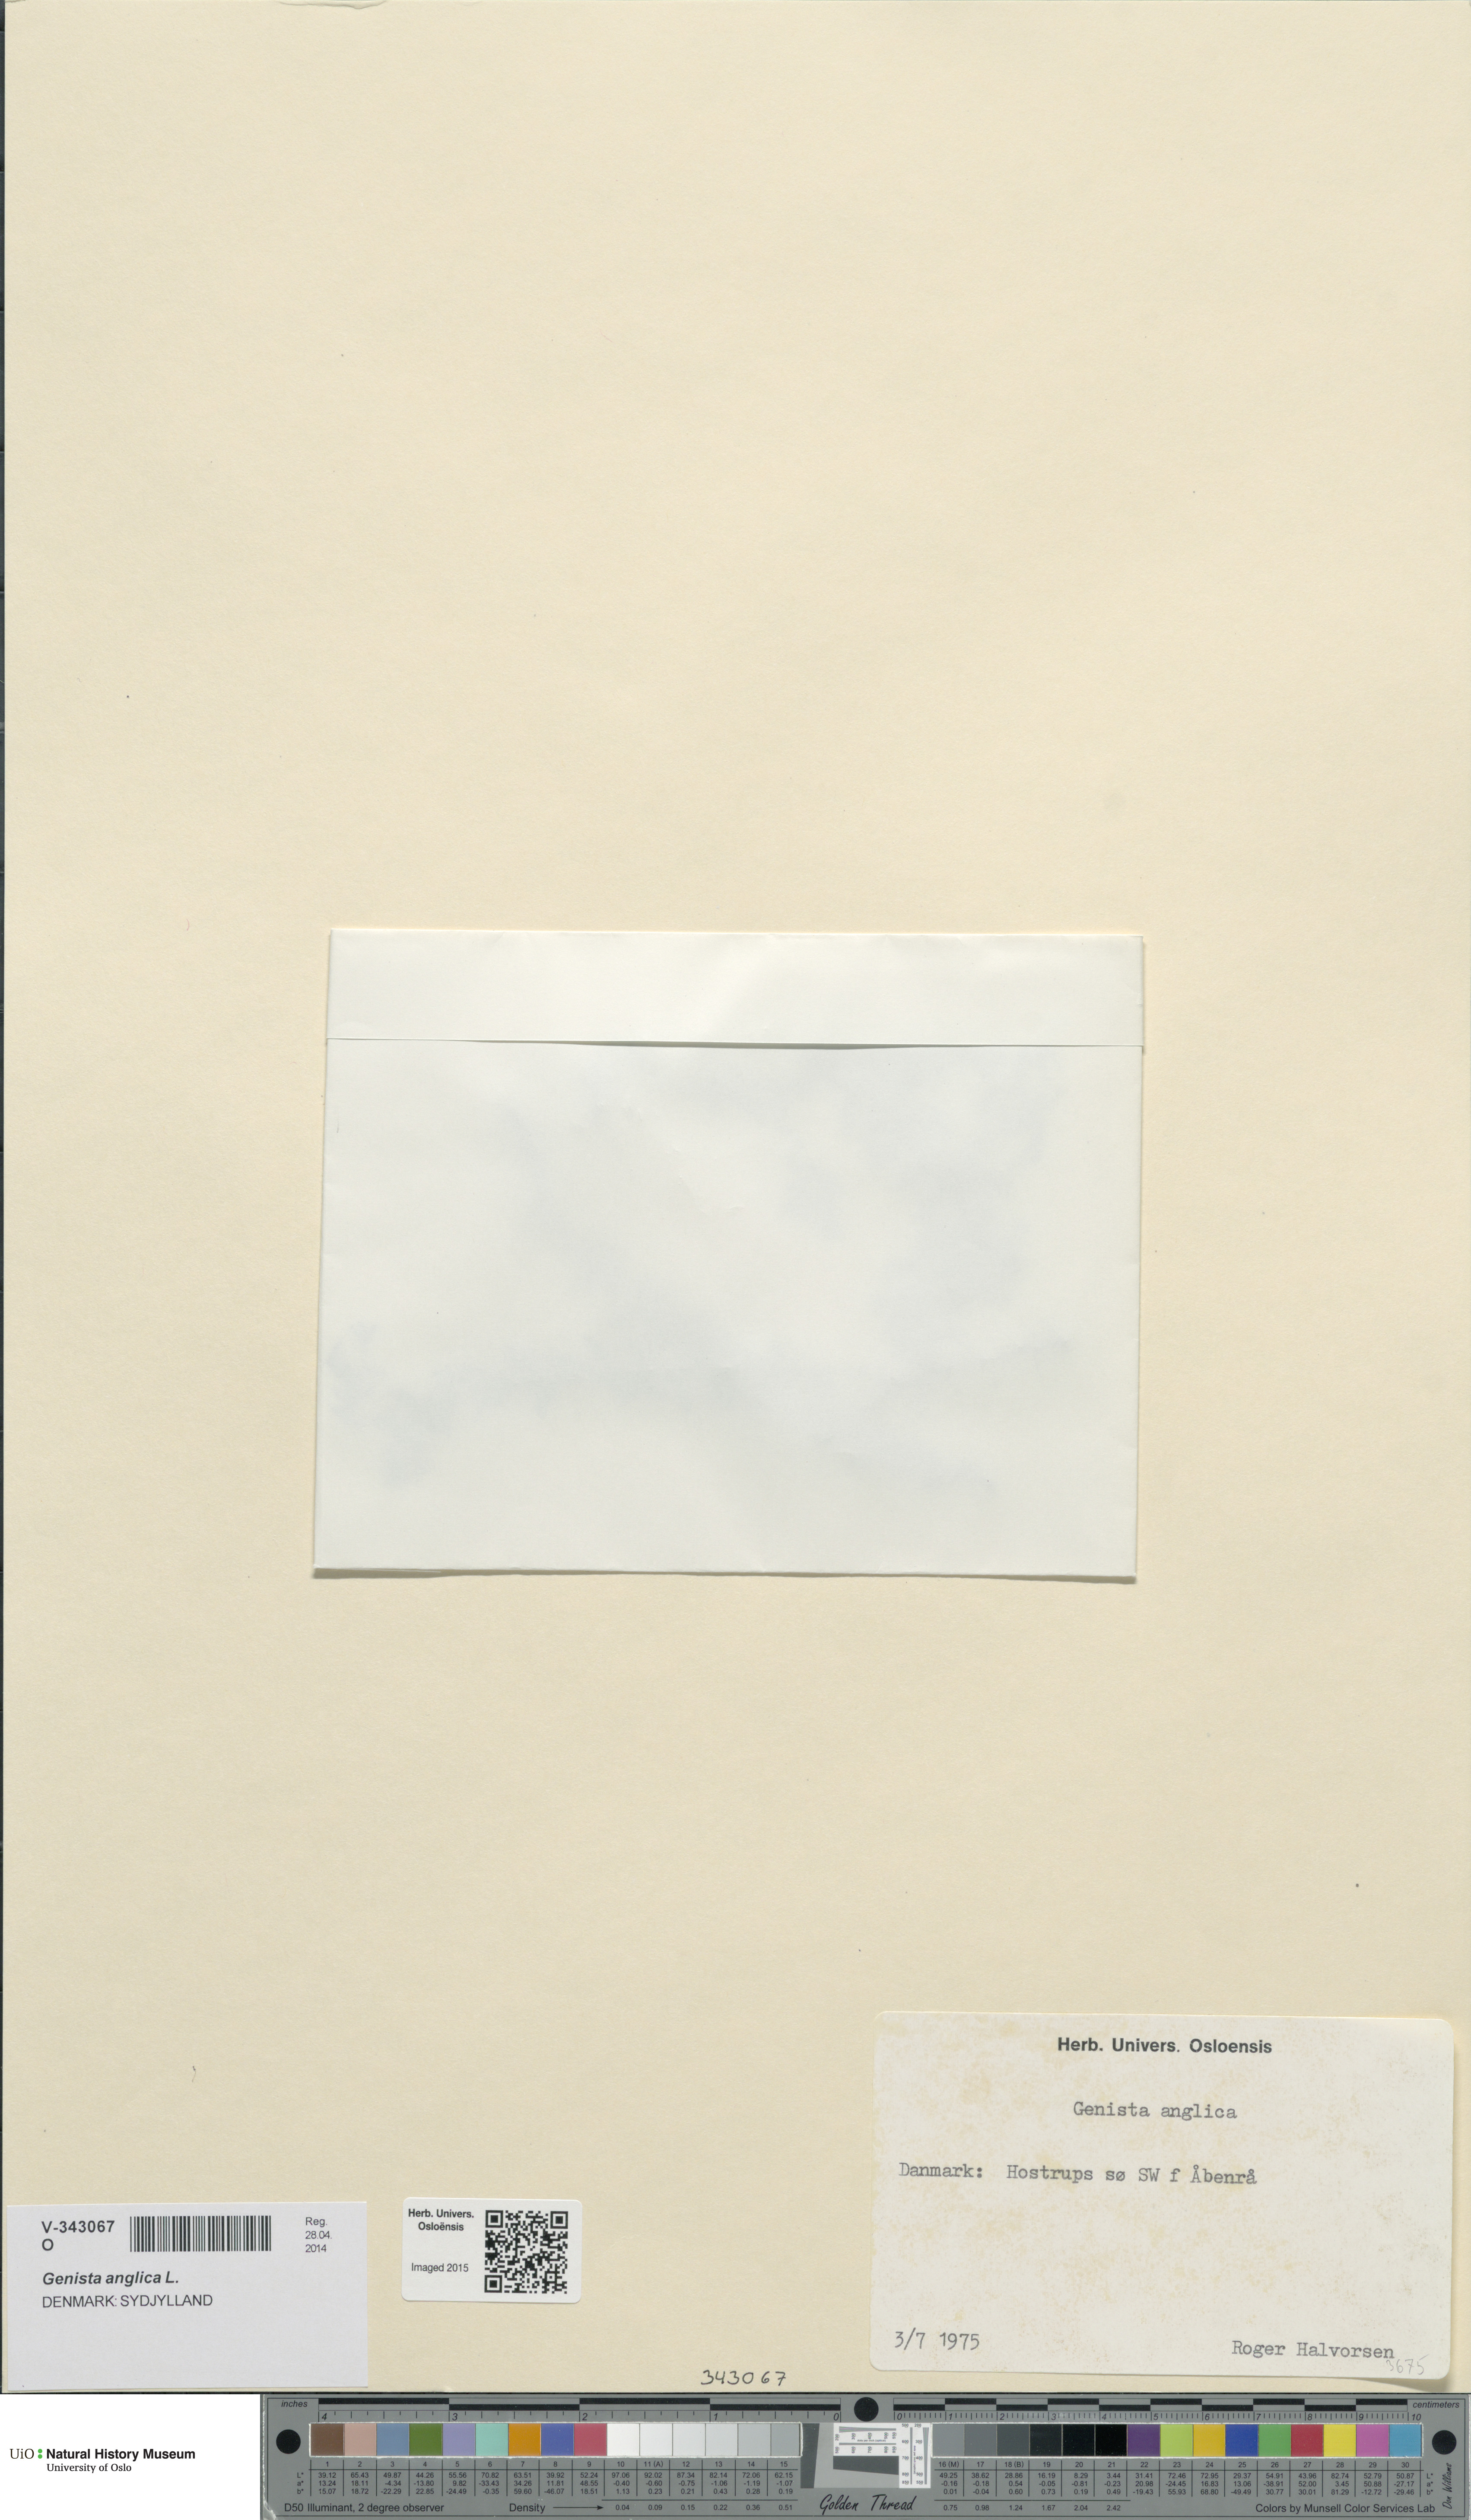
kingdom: Plantae
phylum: Tracheophyta
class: Magnoliopsida
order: Fabales
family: Fabaceae
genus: Genista
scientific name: Genista anglica
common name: Petty whin
